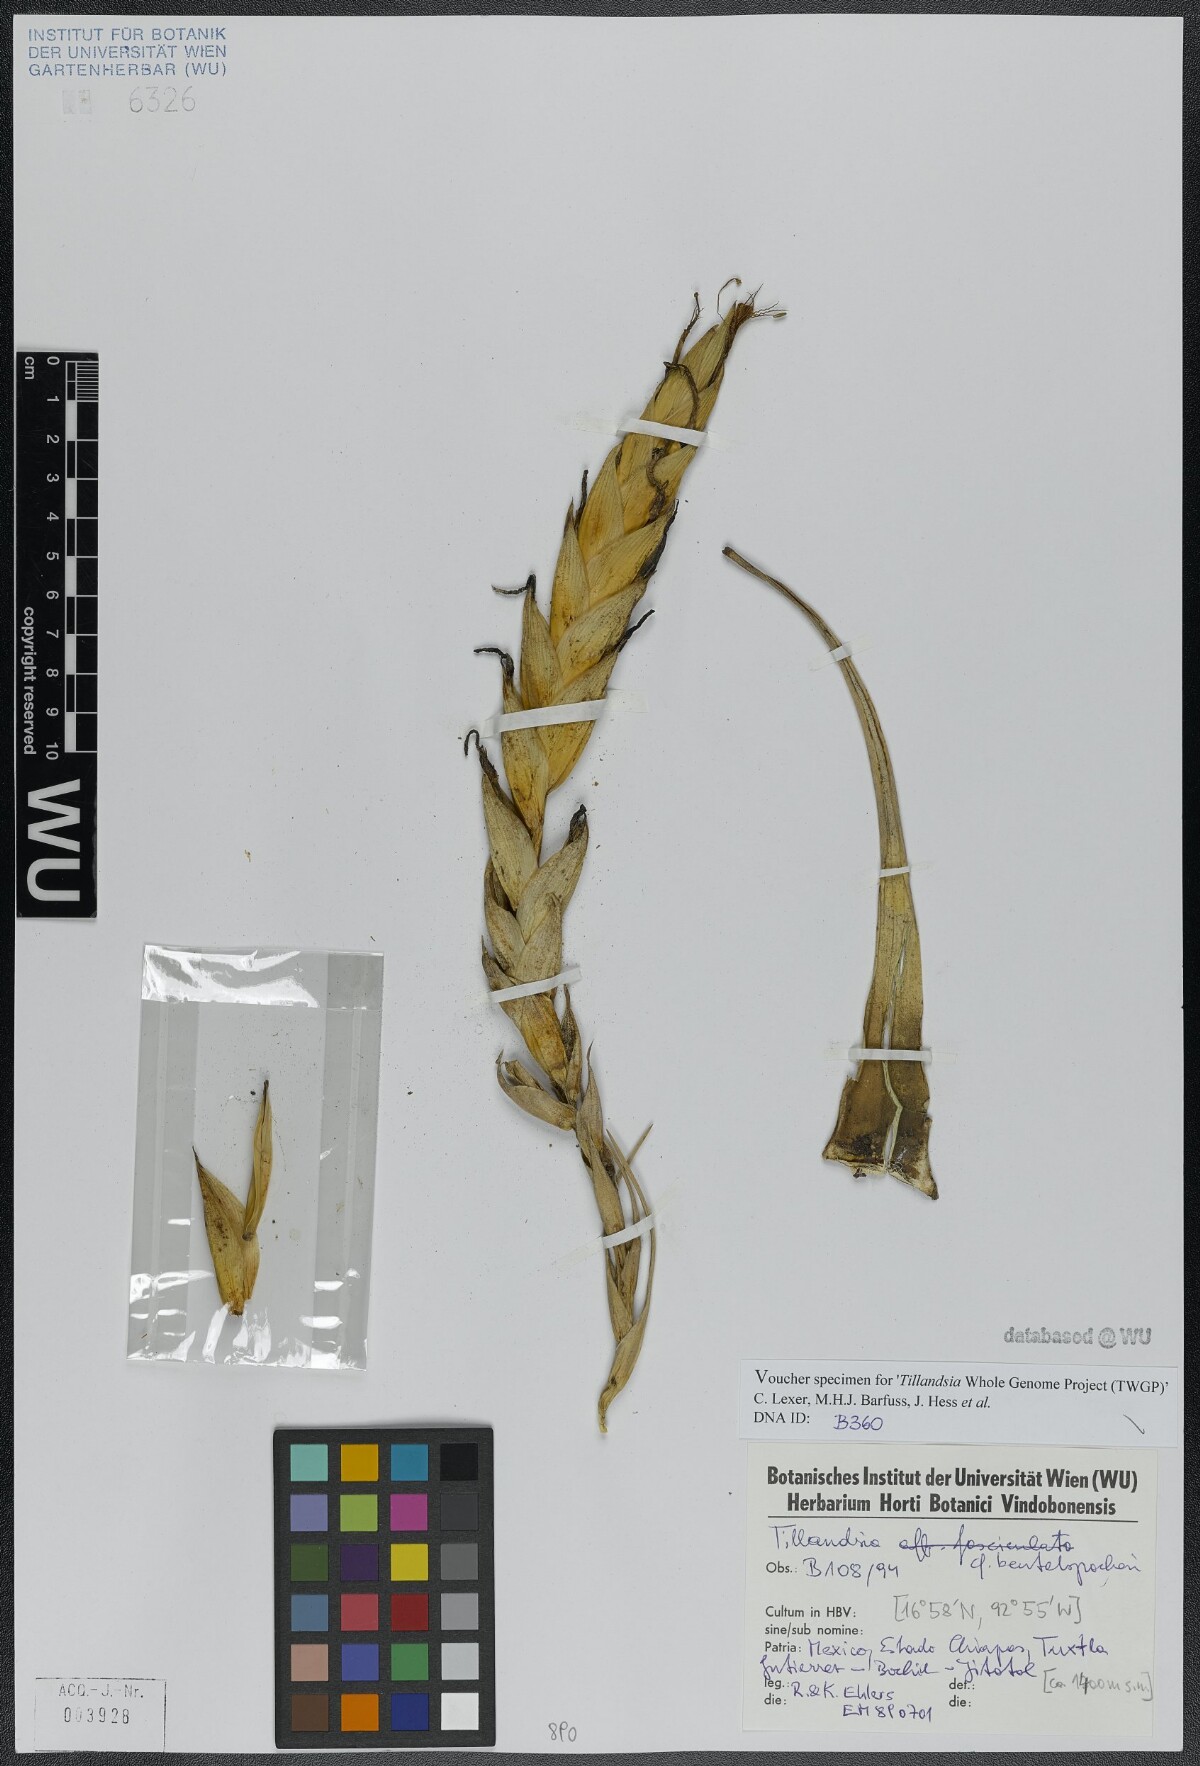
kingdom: Plantae
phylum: Tracheophyta
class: Liliopsida
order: Poales
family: Bromeliaceae
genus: Tillandsia
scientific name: Tillandsia fasciculata
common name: Giant airplant
